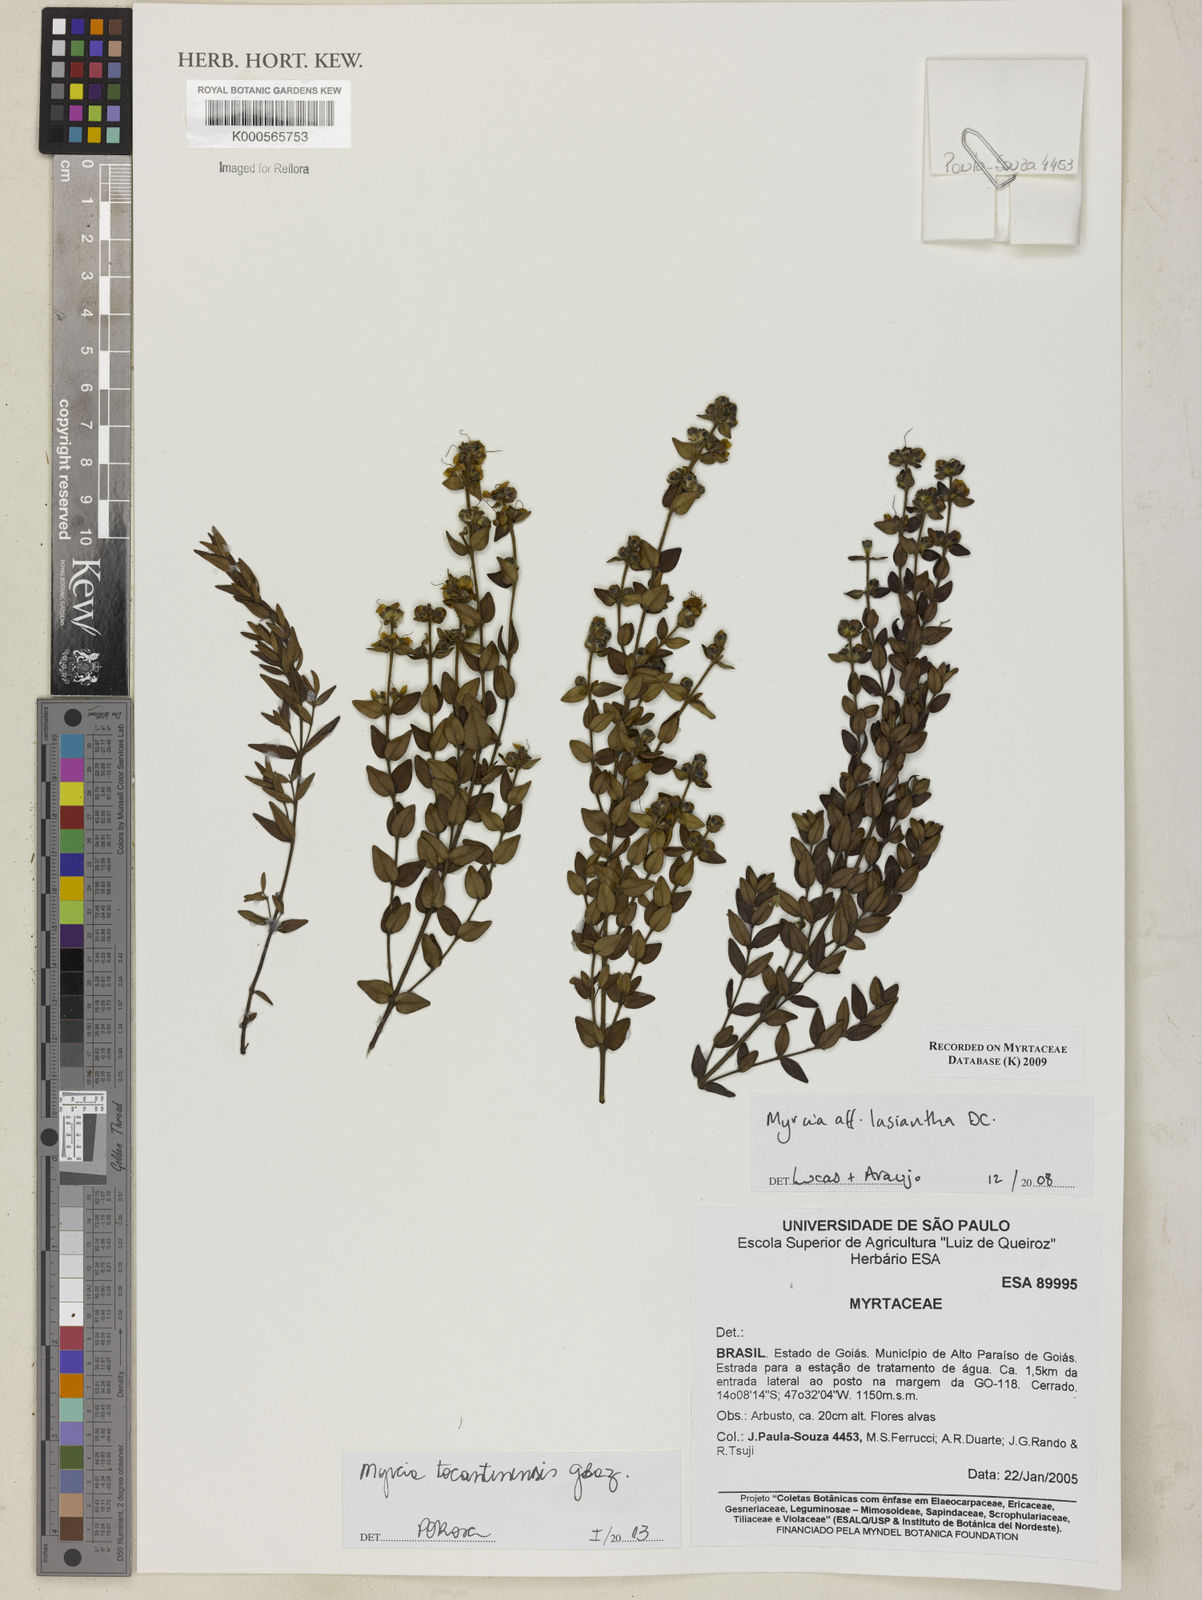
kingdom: Plantae
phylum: Tracheophyta
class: Magnoliopsida
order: Myrtales
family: Myrtaceae
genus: Myrcia
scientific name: Myrcia lasiantha
